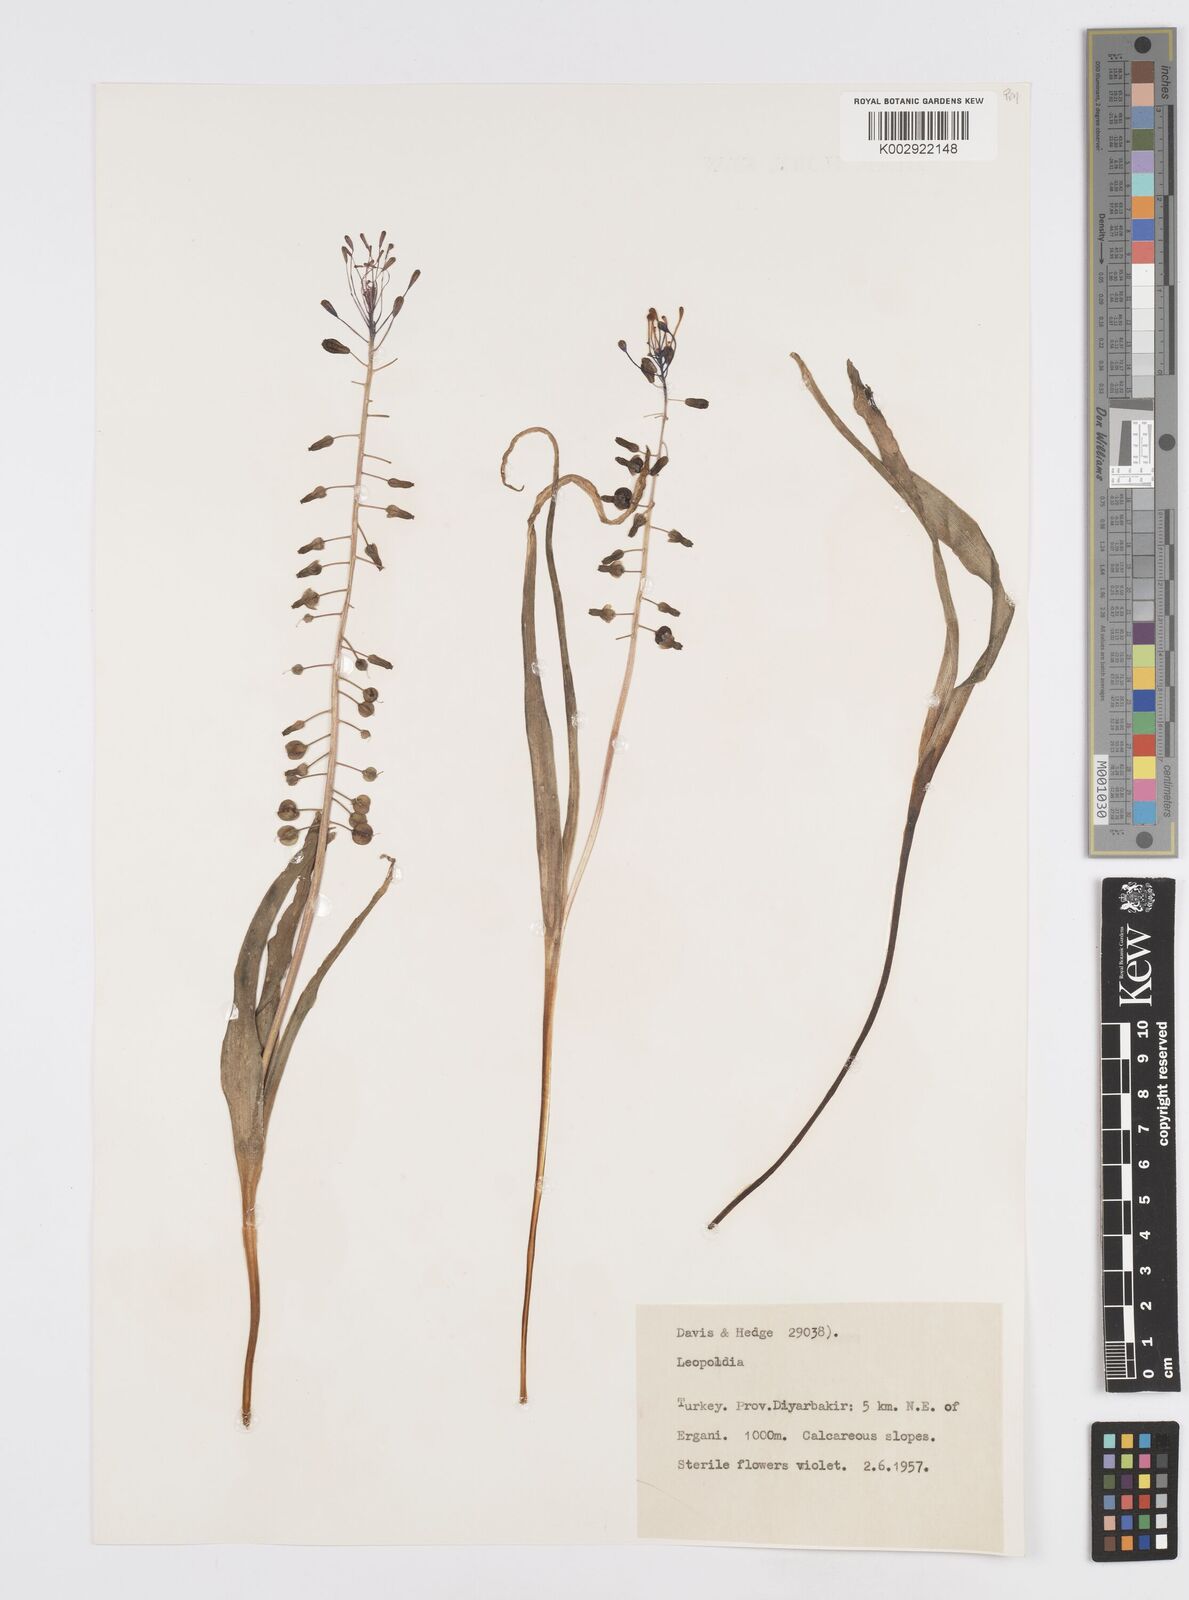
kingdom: Plantae
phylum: Tracheophyta
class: Liliopsida
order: Asparagales
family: Asparagaceae
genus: Muscari
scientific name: Muscari comosum
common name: Tassel hyacinth
